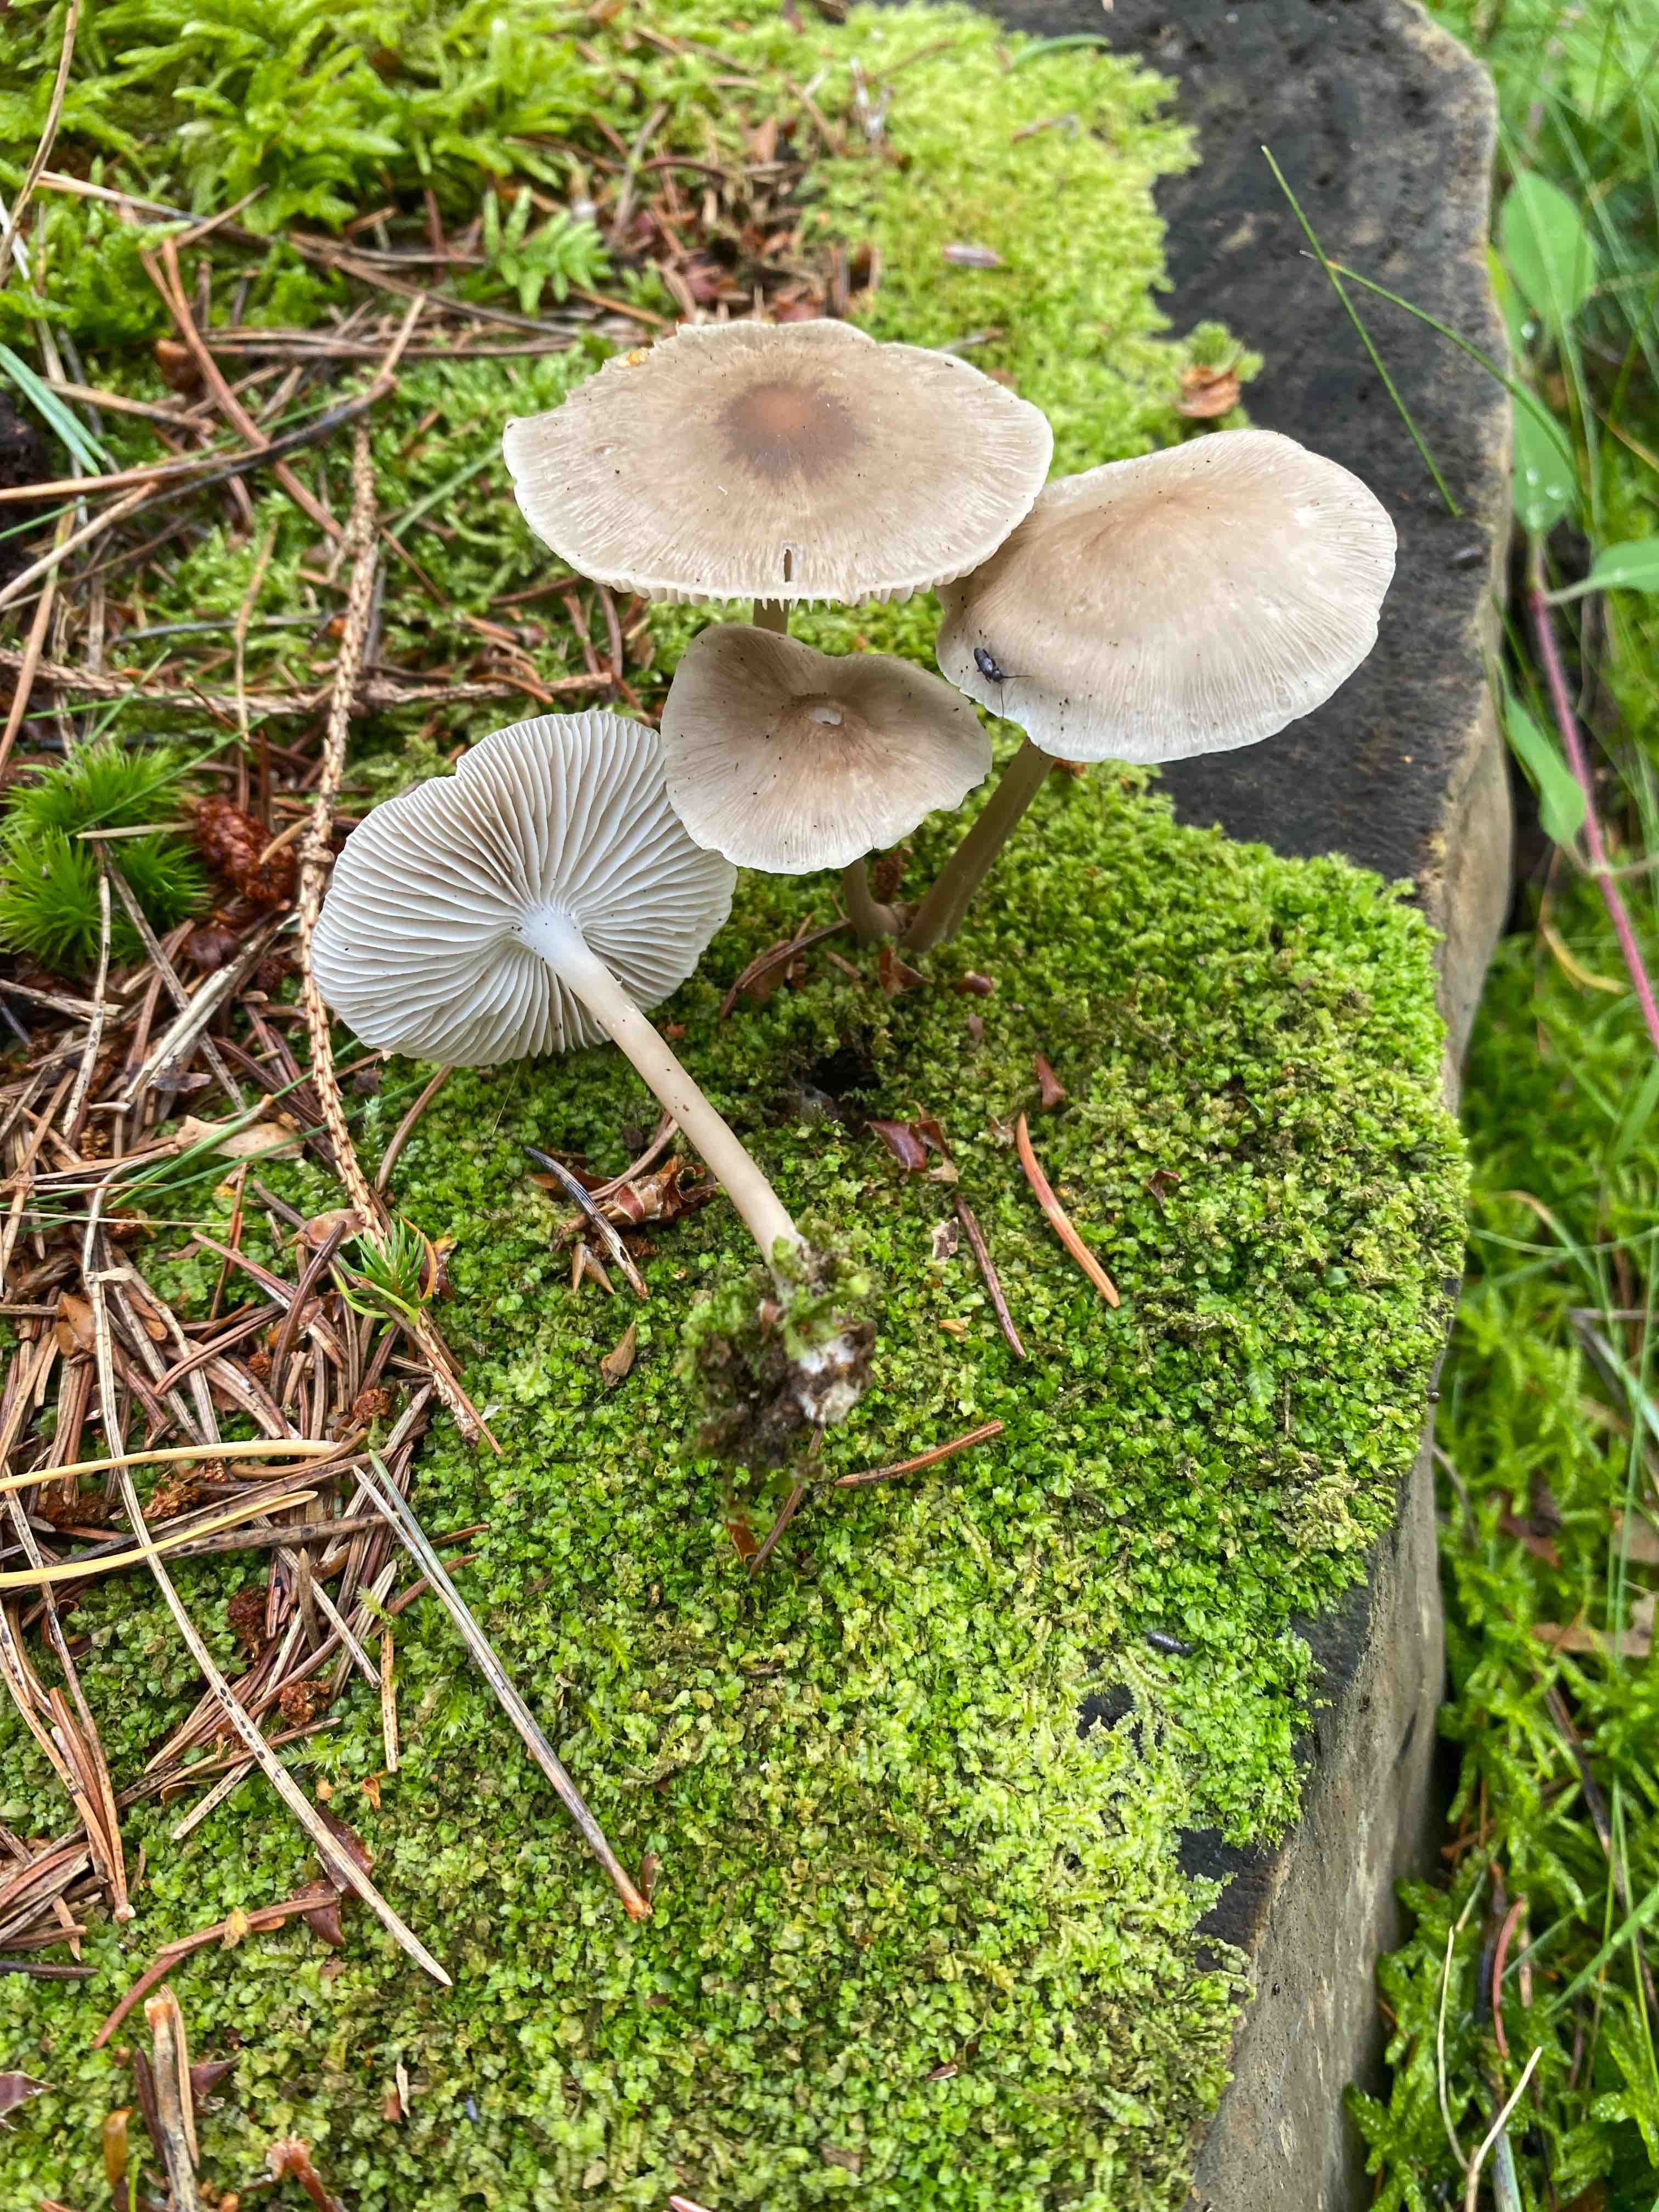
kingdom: Fungi
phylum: Basidiomycota
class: Agaricomycetes
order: Agaricales
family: Mycenaceae
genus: Mycena
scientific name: Mycena galericulata
